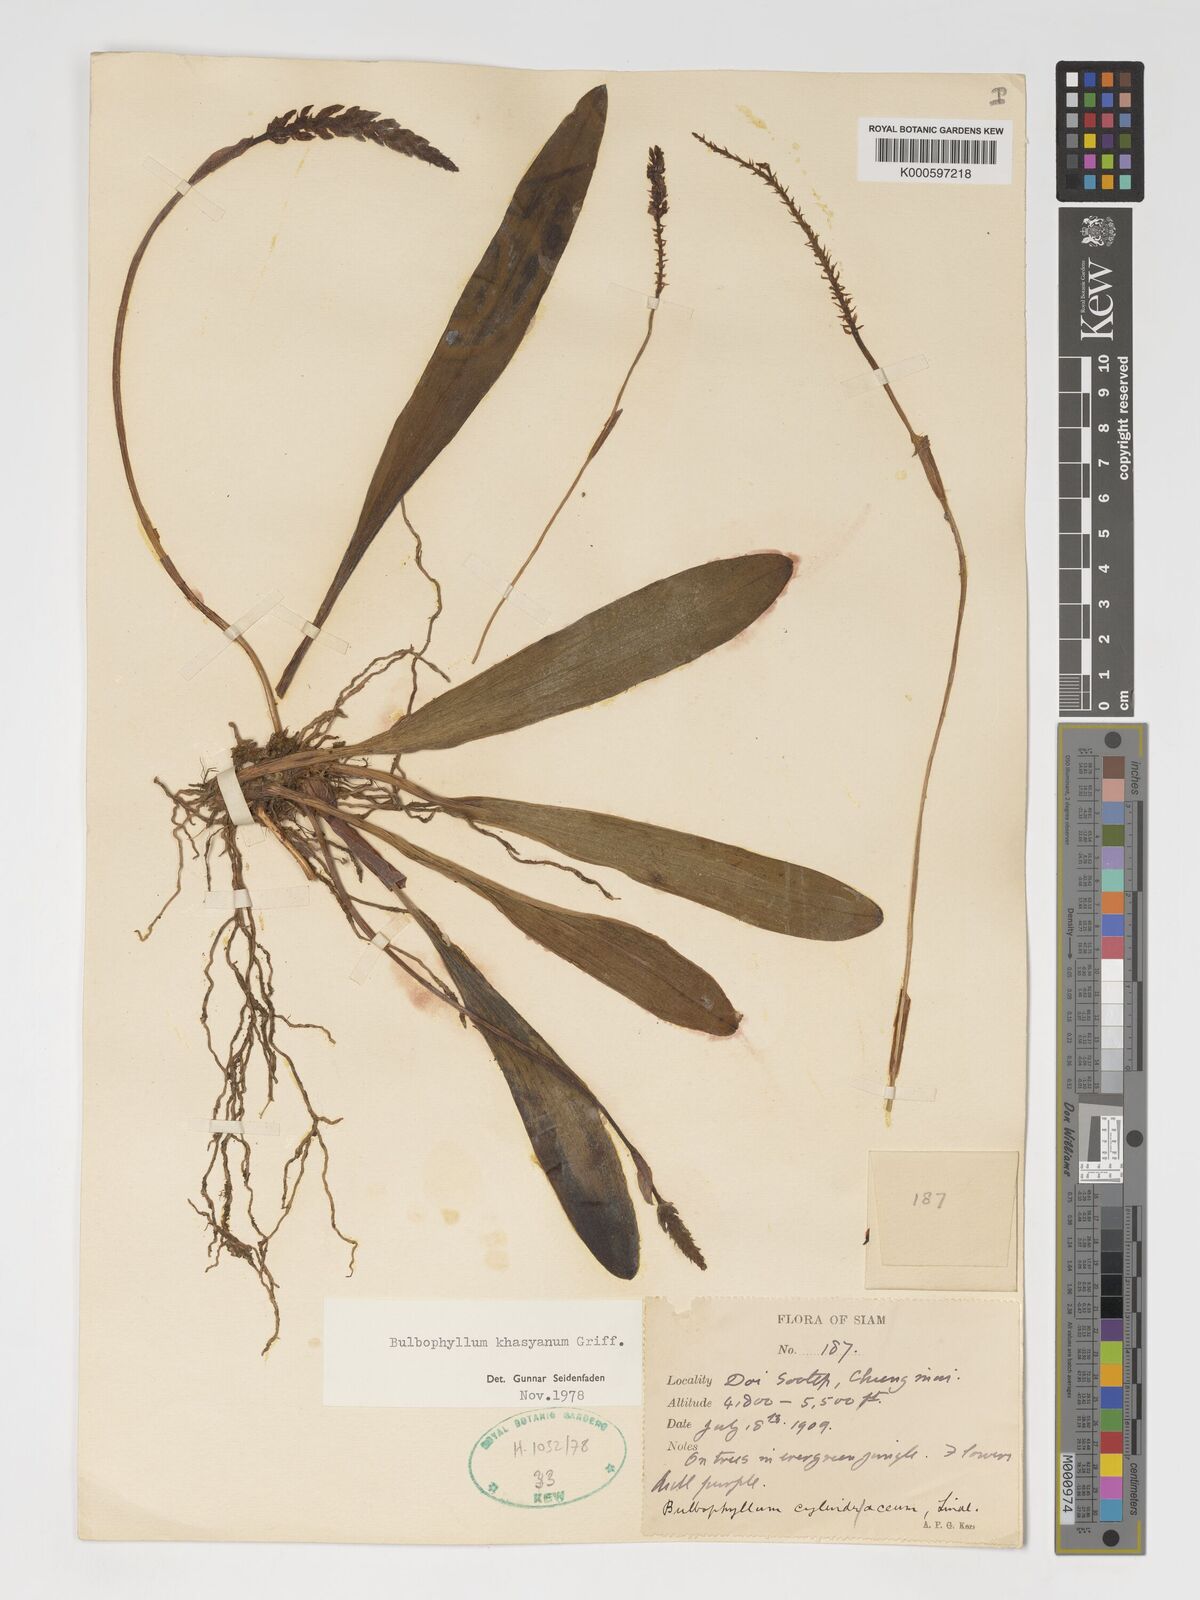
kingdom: Plantae
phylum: Tracheophyta
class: Liliopsida
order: Asparagales
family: Orchidaceae
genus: Bulbophyllum
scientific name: Bulbophyllum khasyanum
